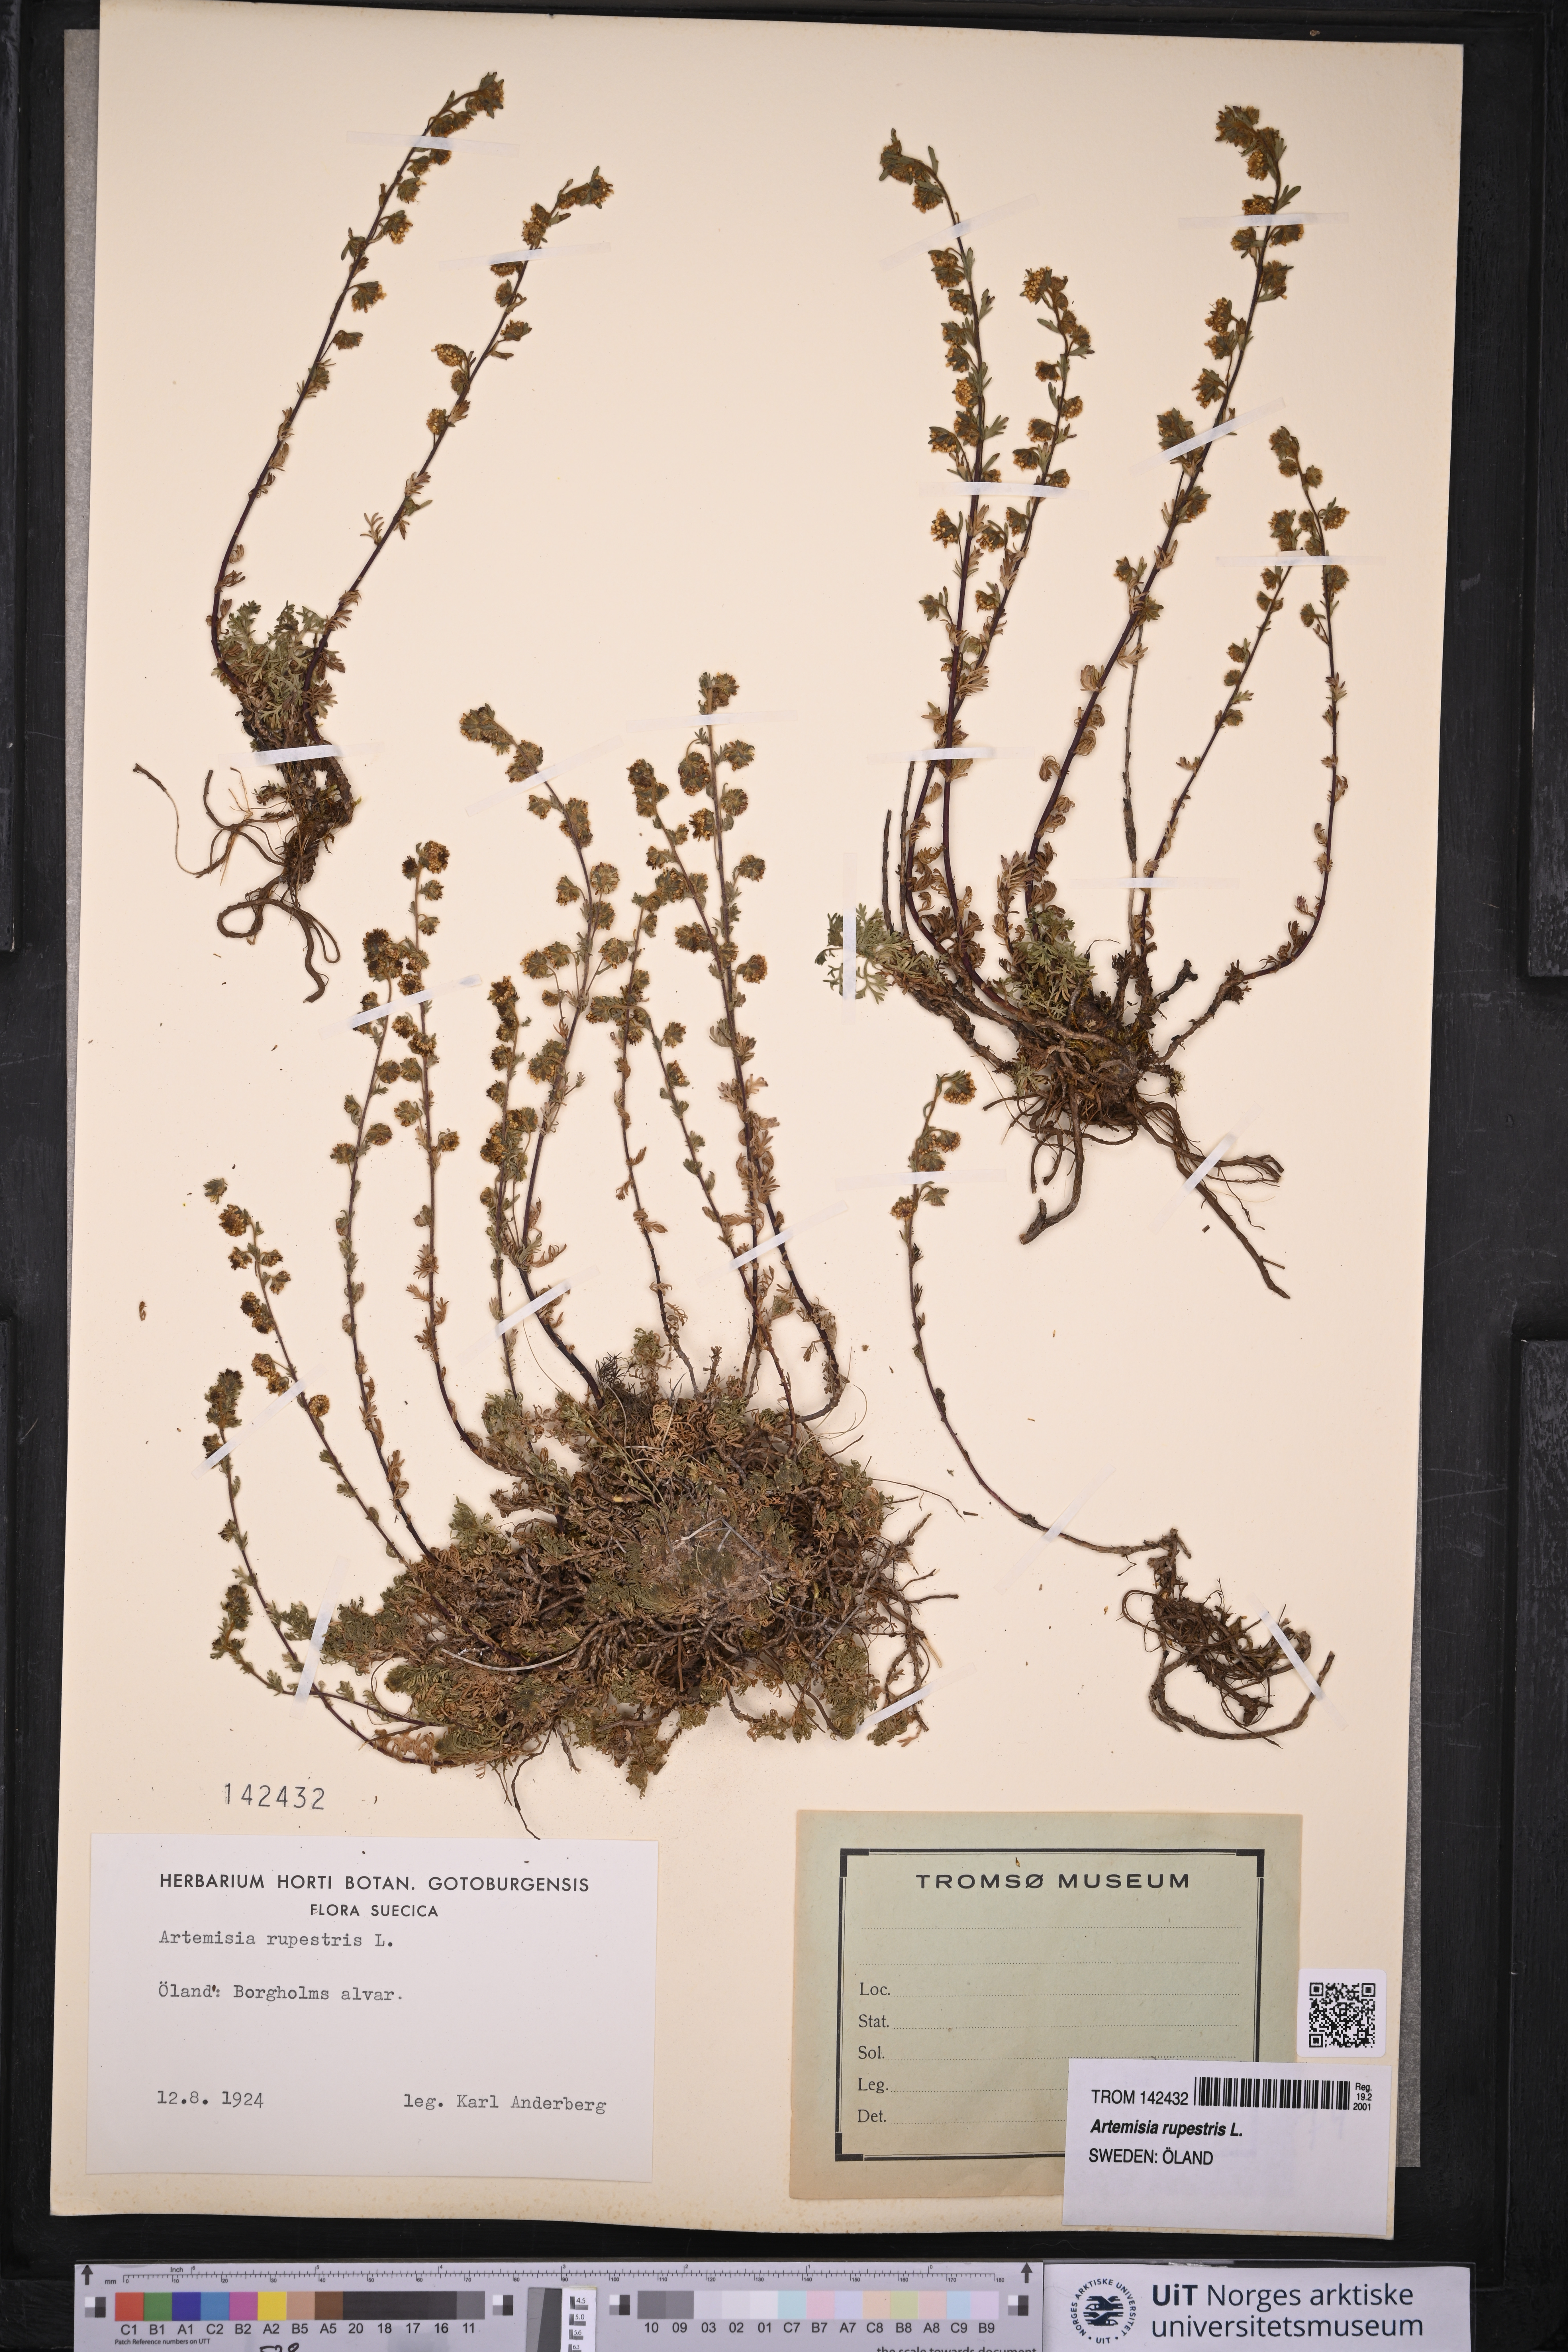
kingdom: Plantae
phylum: Tracheophyta
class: Magnoliopsida
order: Asterales
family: Asteraceae
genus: Artemisia
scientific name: Artemisia rupestris
